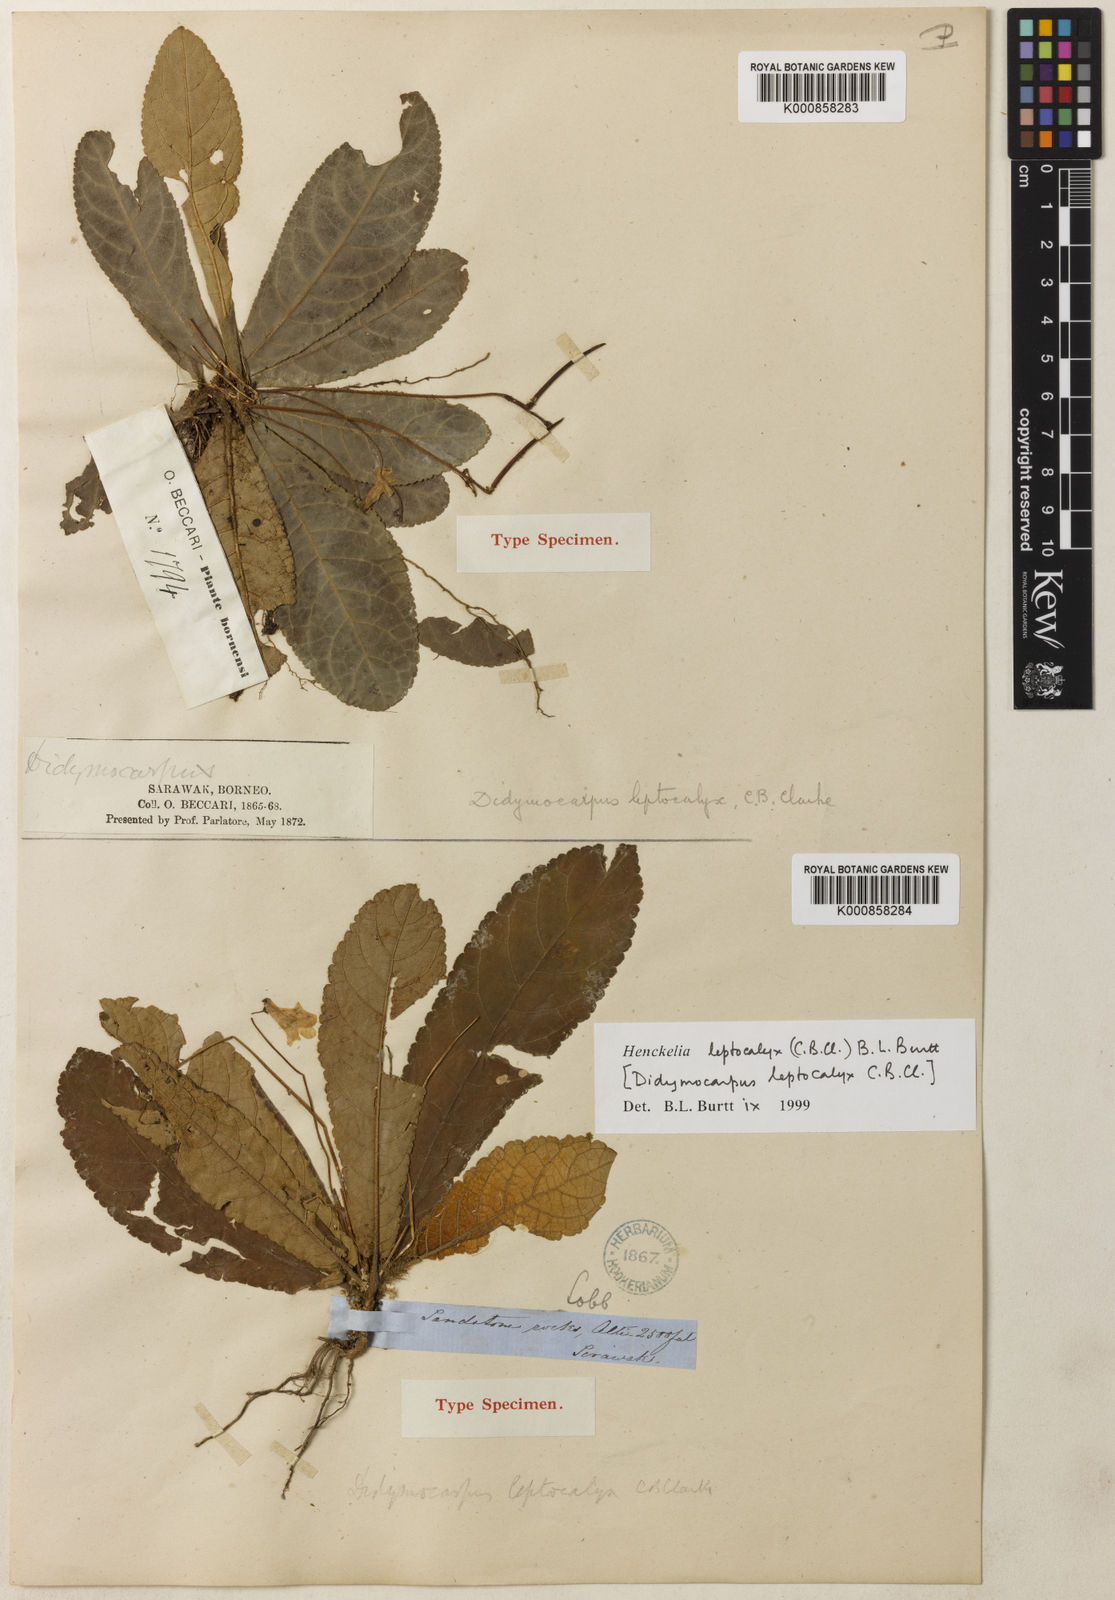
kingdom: Plantae
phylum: Tracheophyta
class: Magnoliopsida
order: Lamiales
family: Gesneriaceae
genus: Codonoboea
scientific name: Codonoboea leptocalyx
